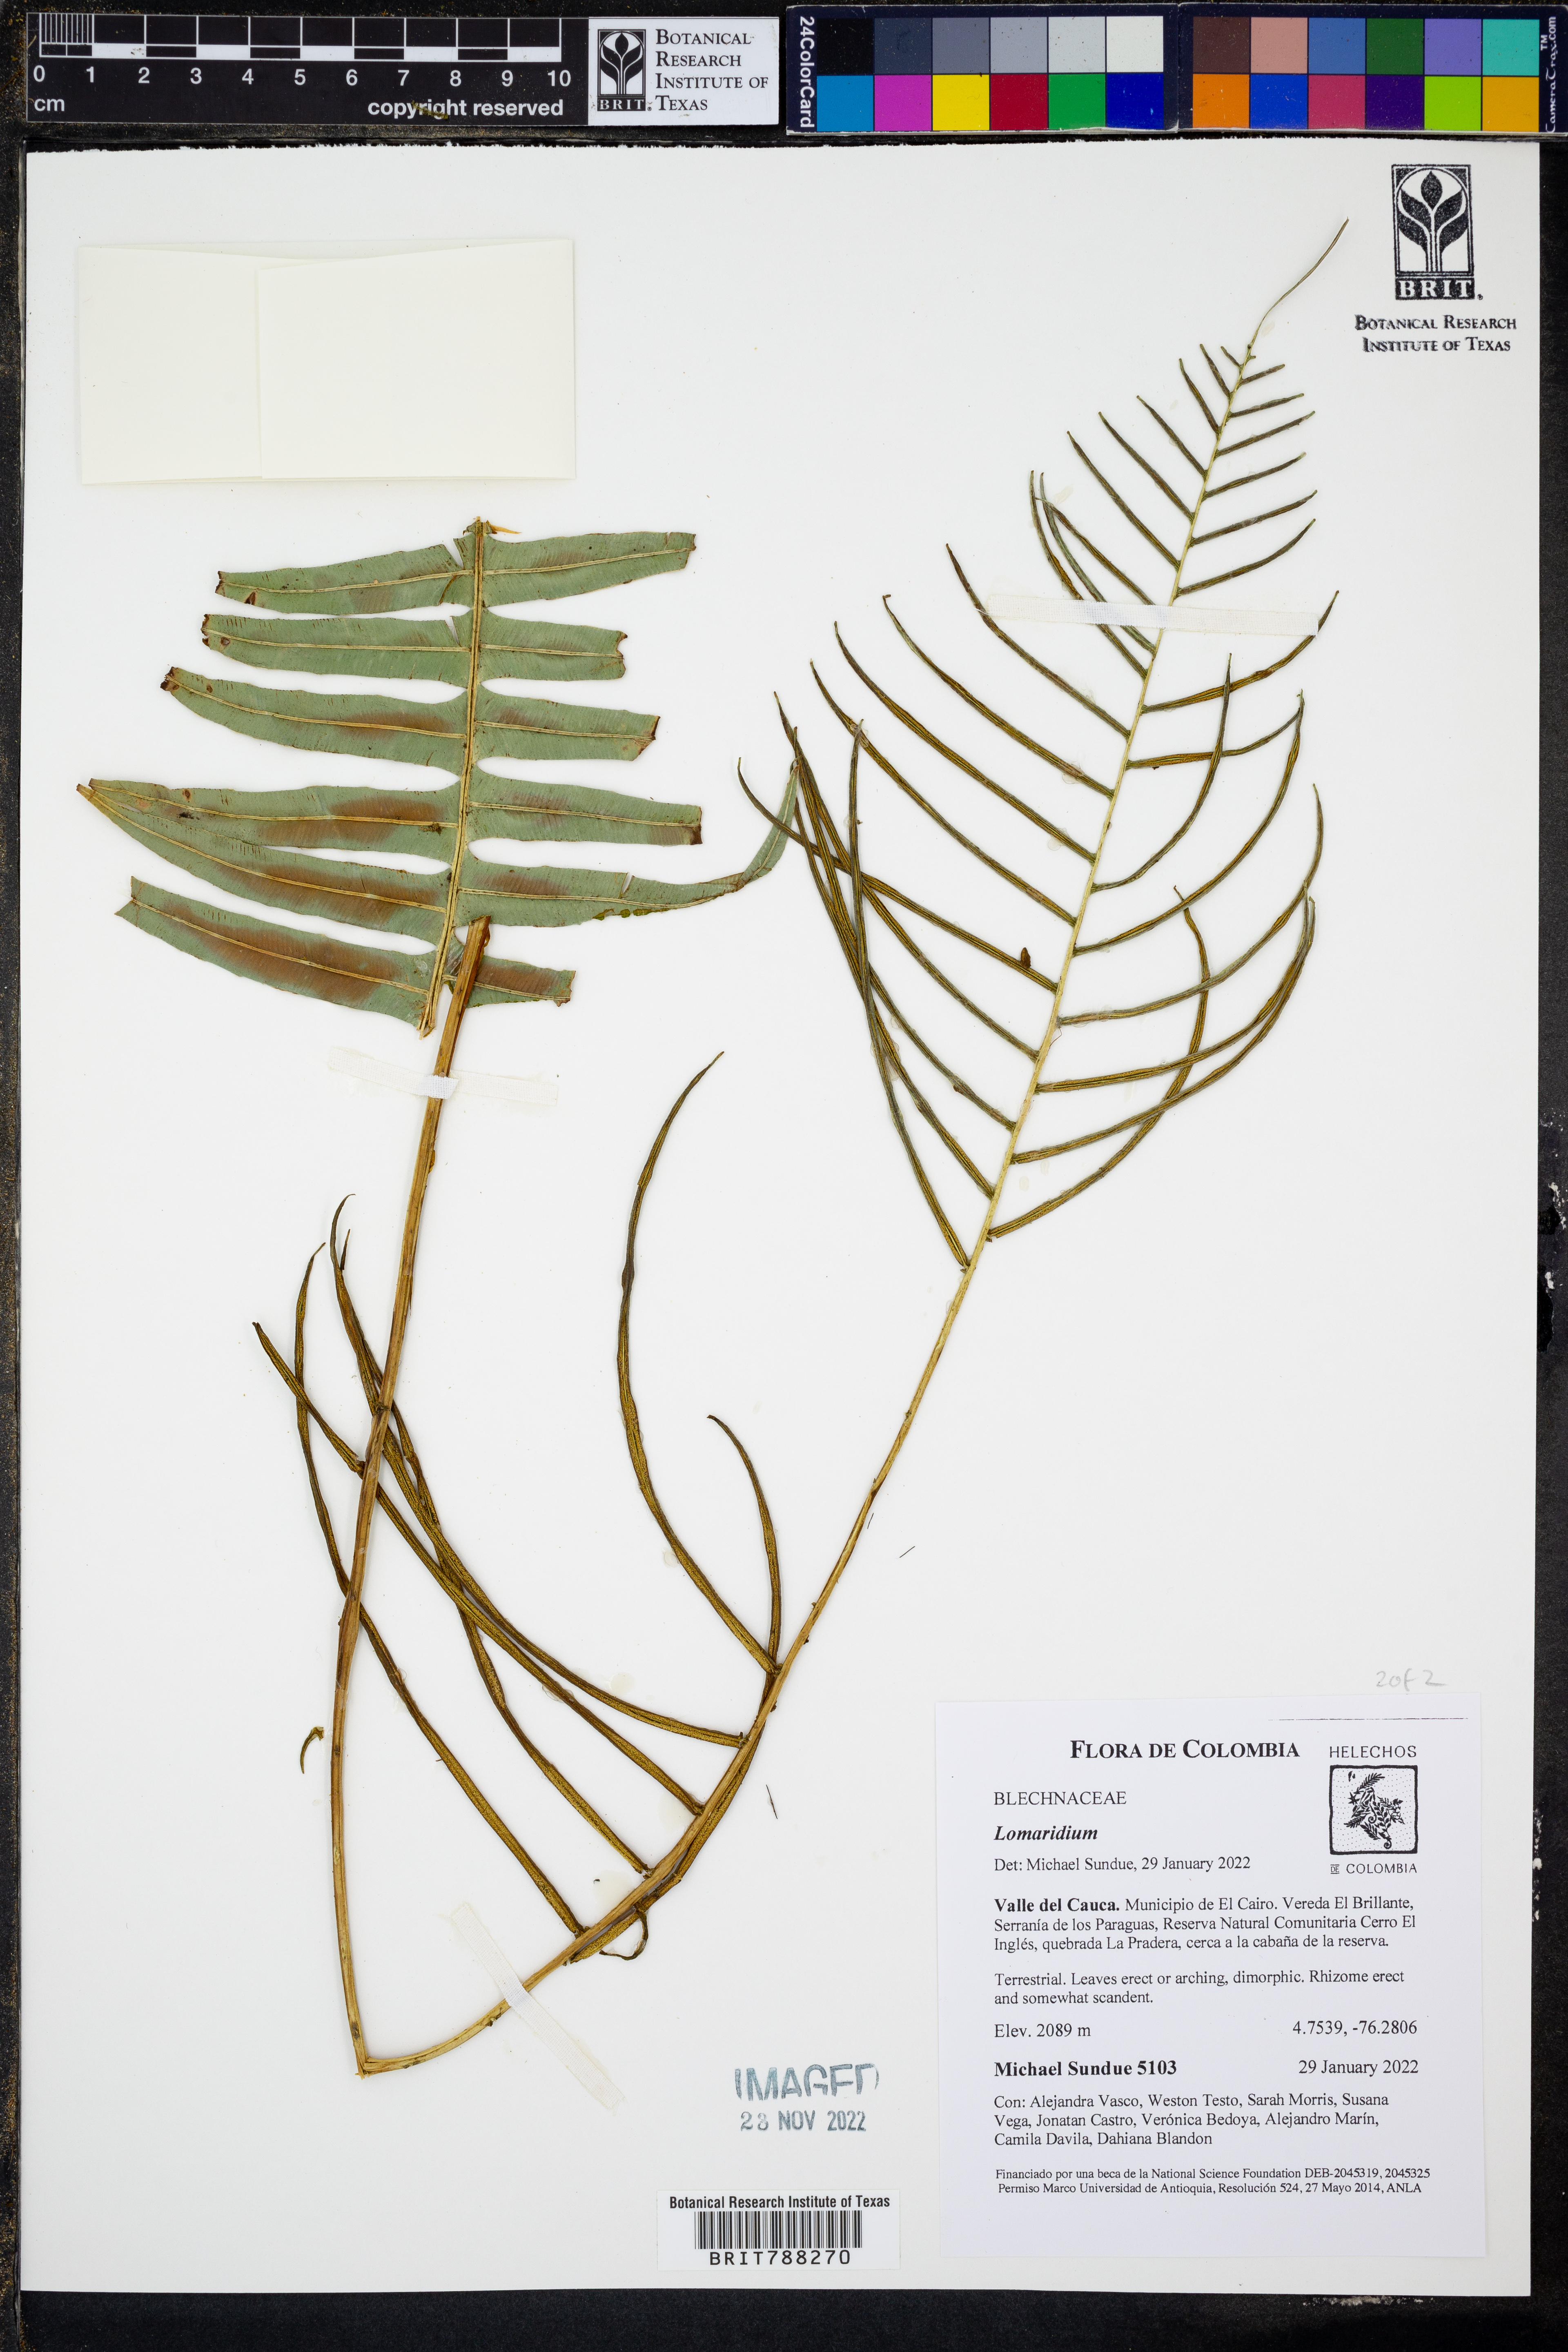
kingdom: Plantae
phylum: Tracheophyta
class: Polypodiopsida
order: Polypodiales
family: Blechnaceae
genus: Lomaridium
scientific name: Lomaridium ensiforme
